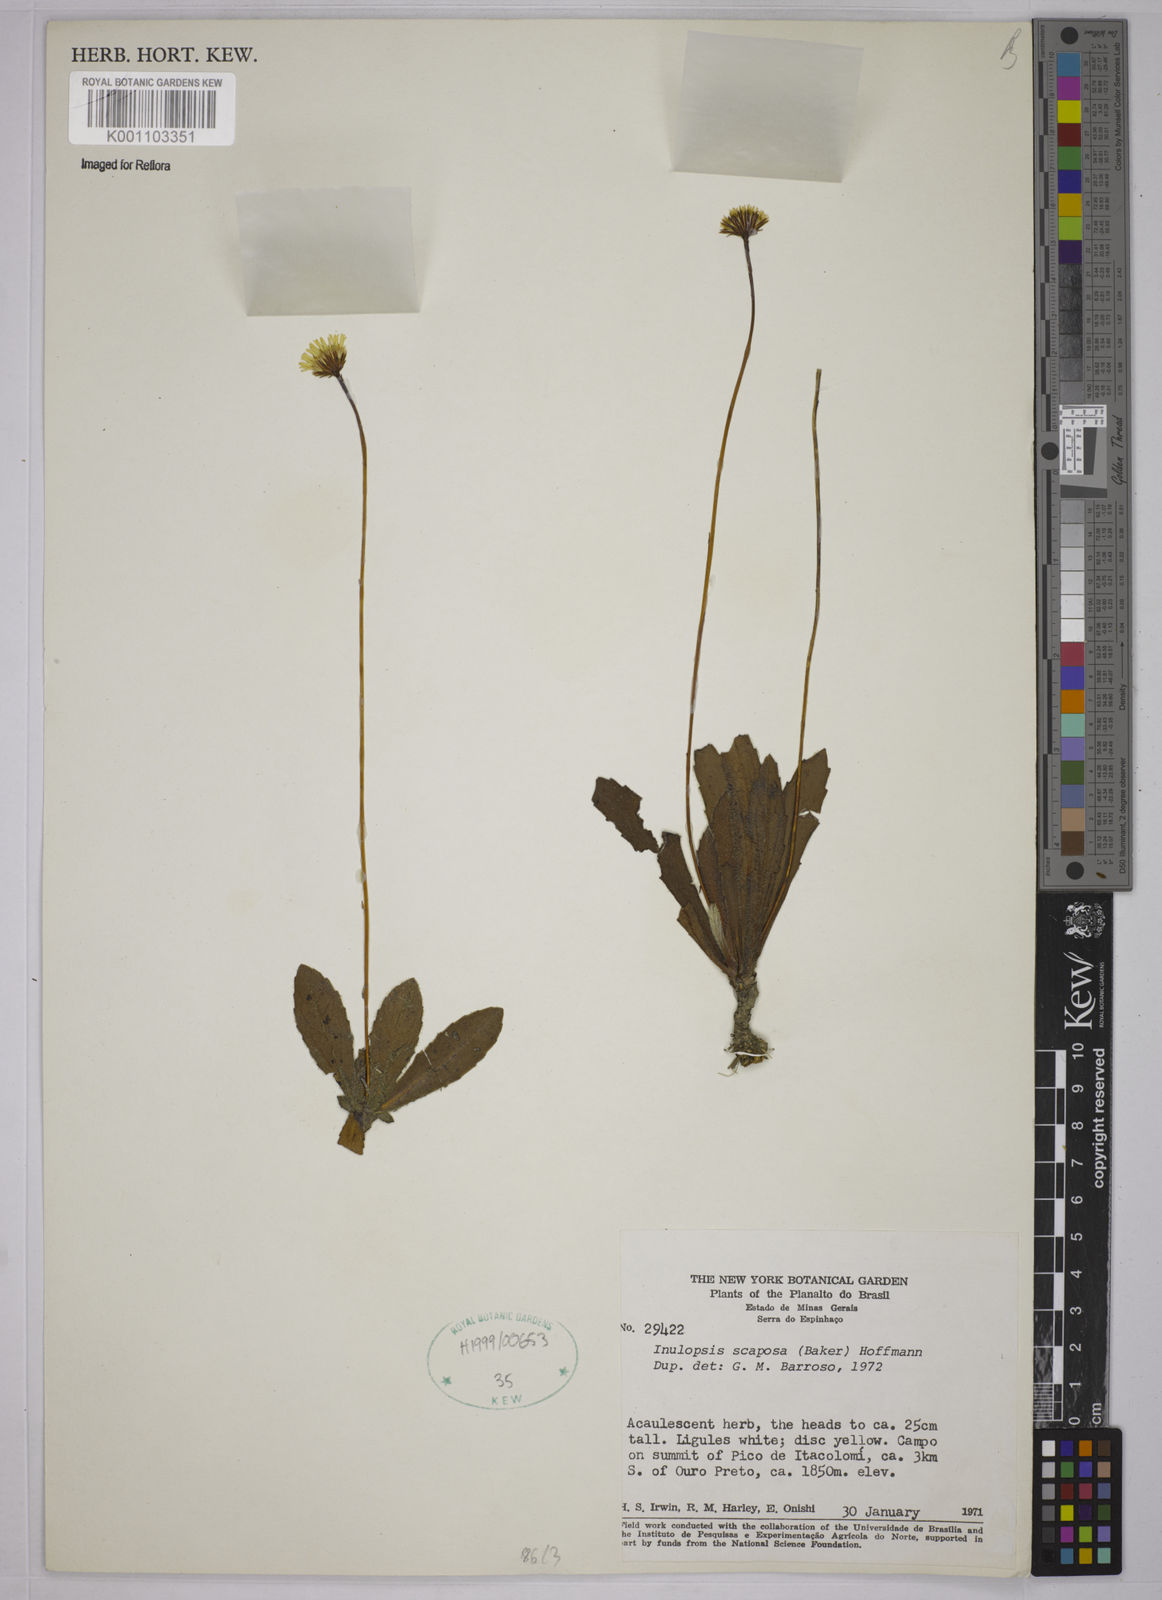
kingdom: Plantae
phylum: Tracheophyta
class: Magnoliopsida
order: Asterales
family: Asteraceae
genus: Inulopsis
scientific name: Inulopsis scaposa
